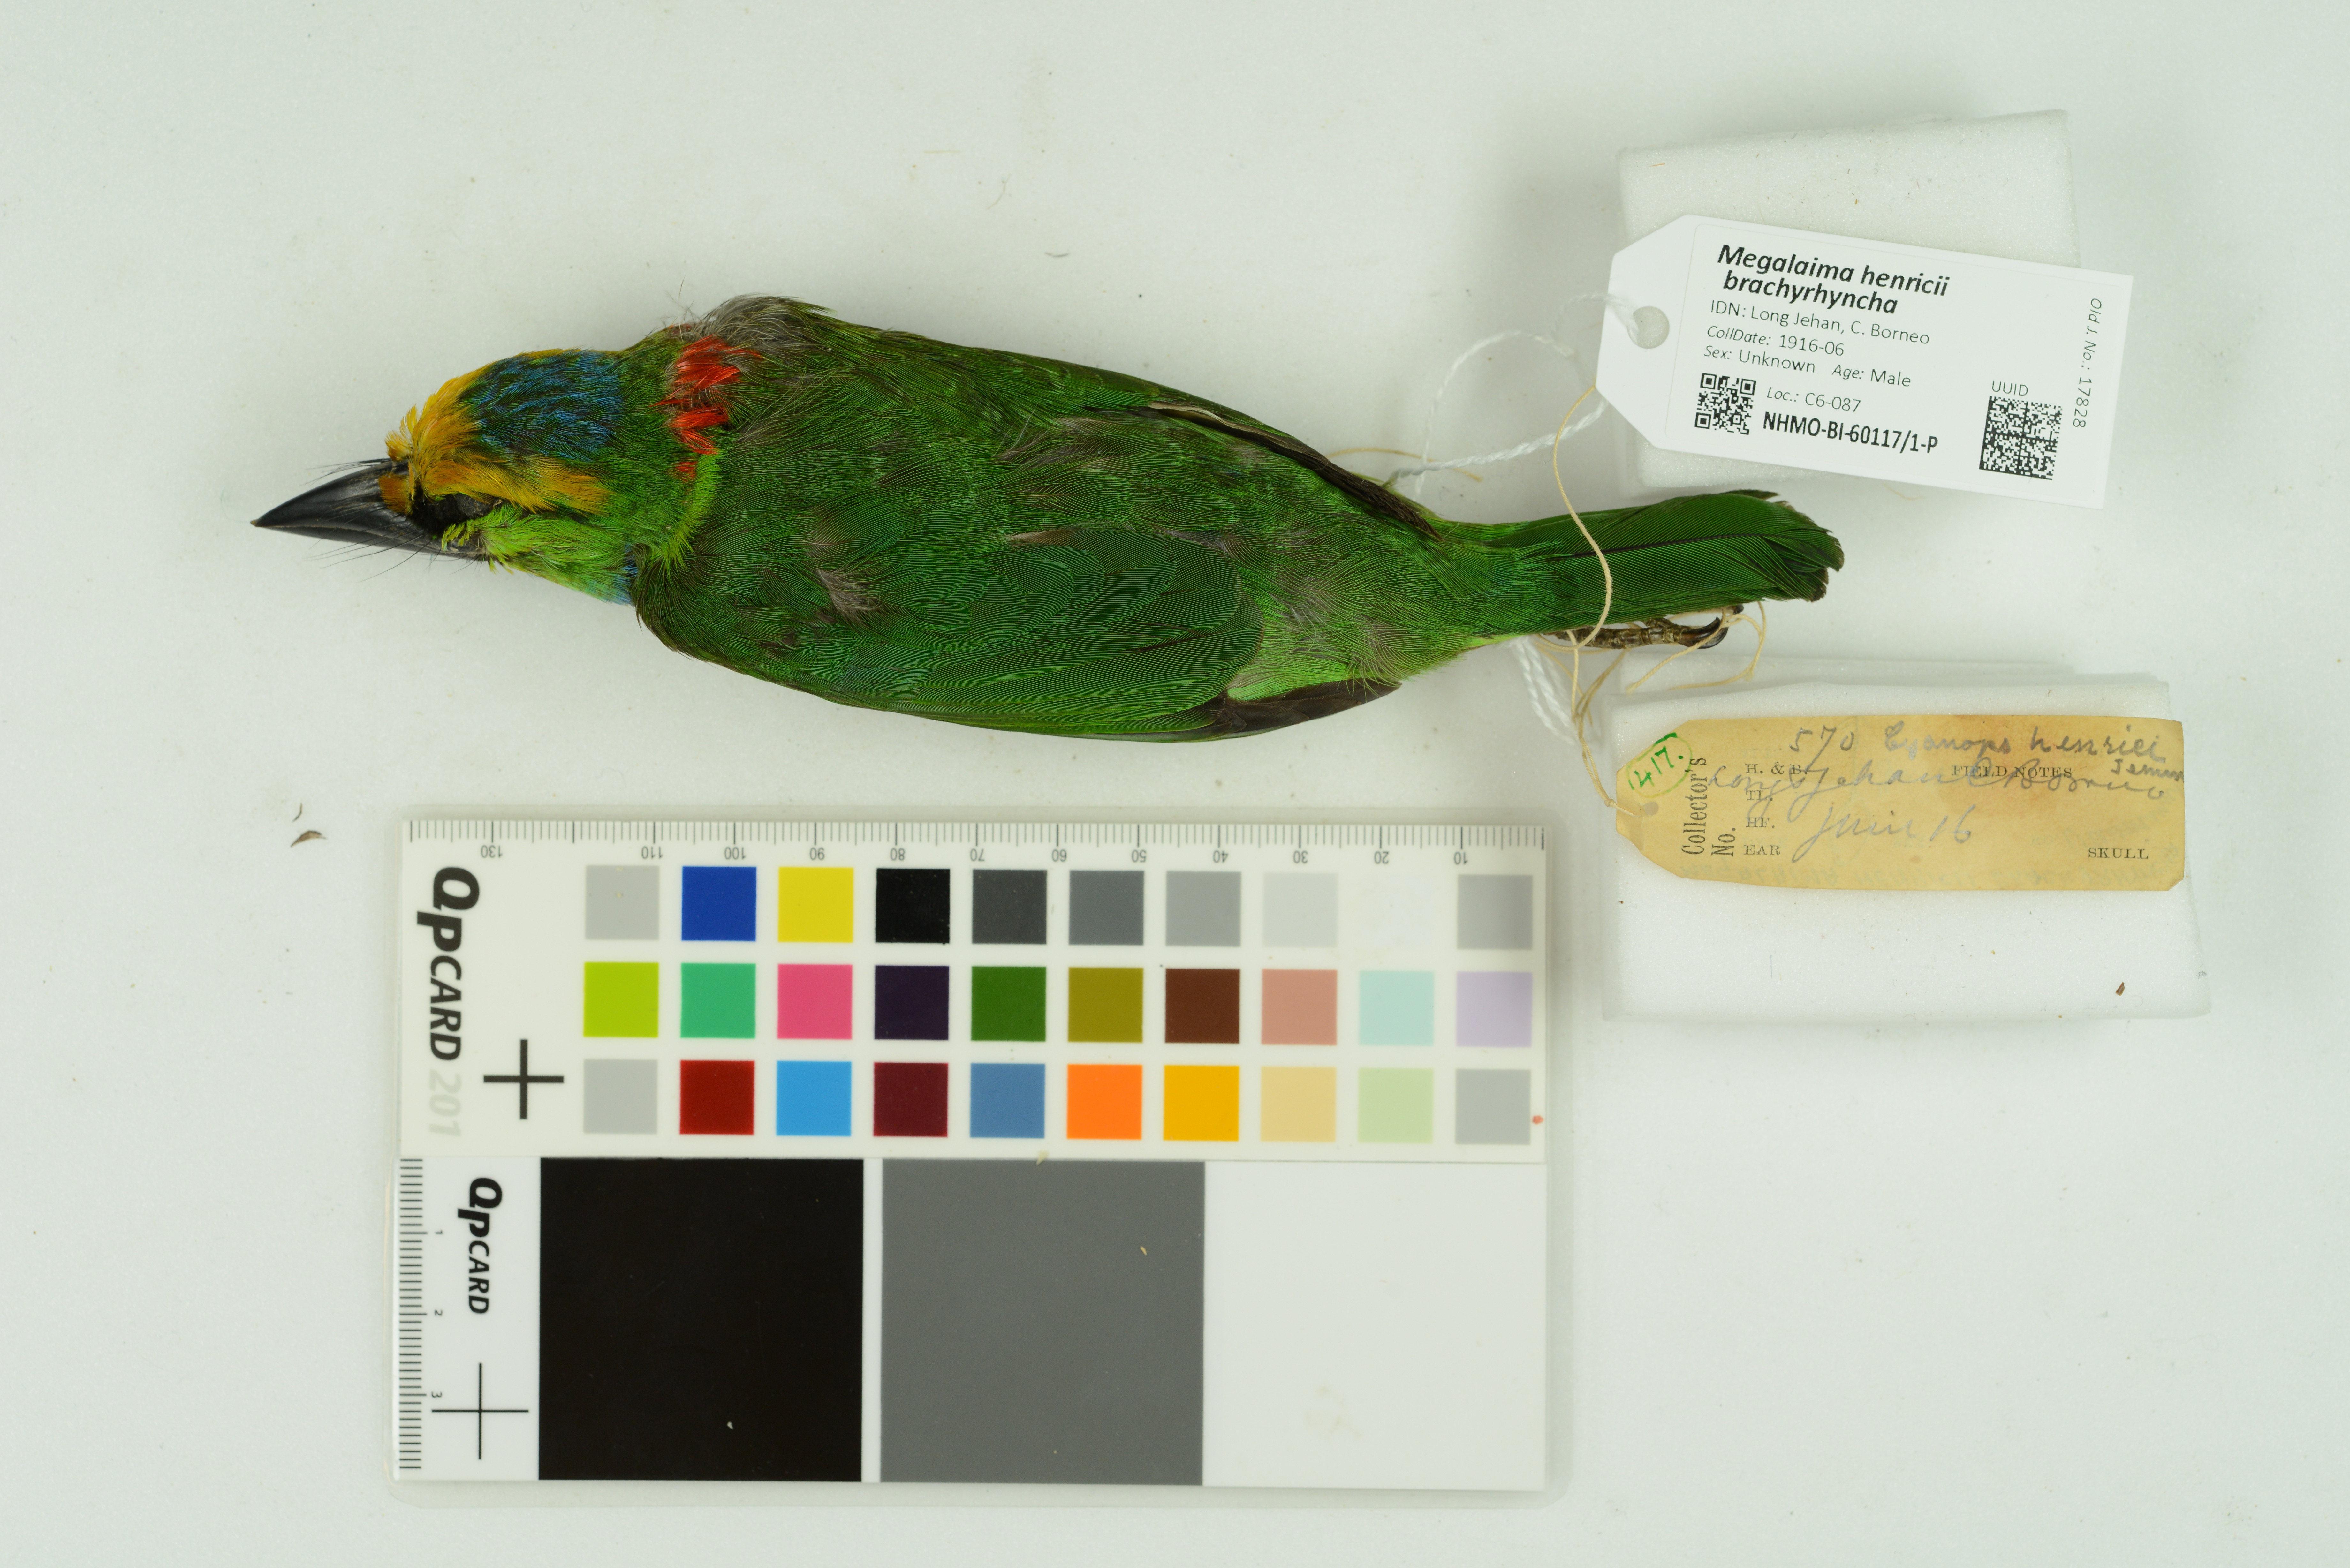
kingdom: Animalia
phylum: Chordata
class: Aves
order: Piciformes
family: Megalaimidae
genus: Psilopogon
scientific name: Psilopogon henricii
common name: Yellow-crowned barbet
